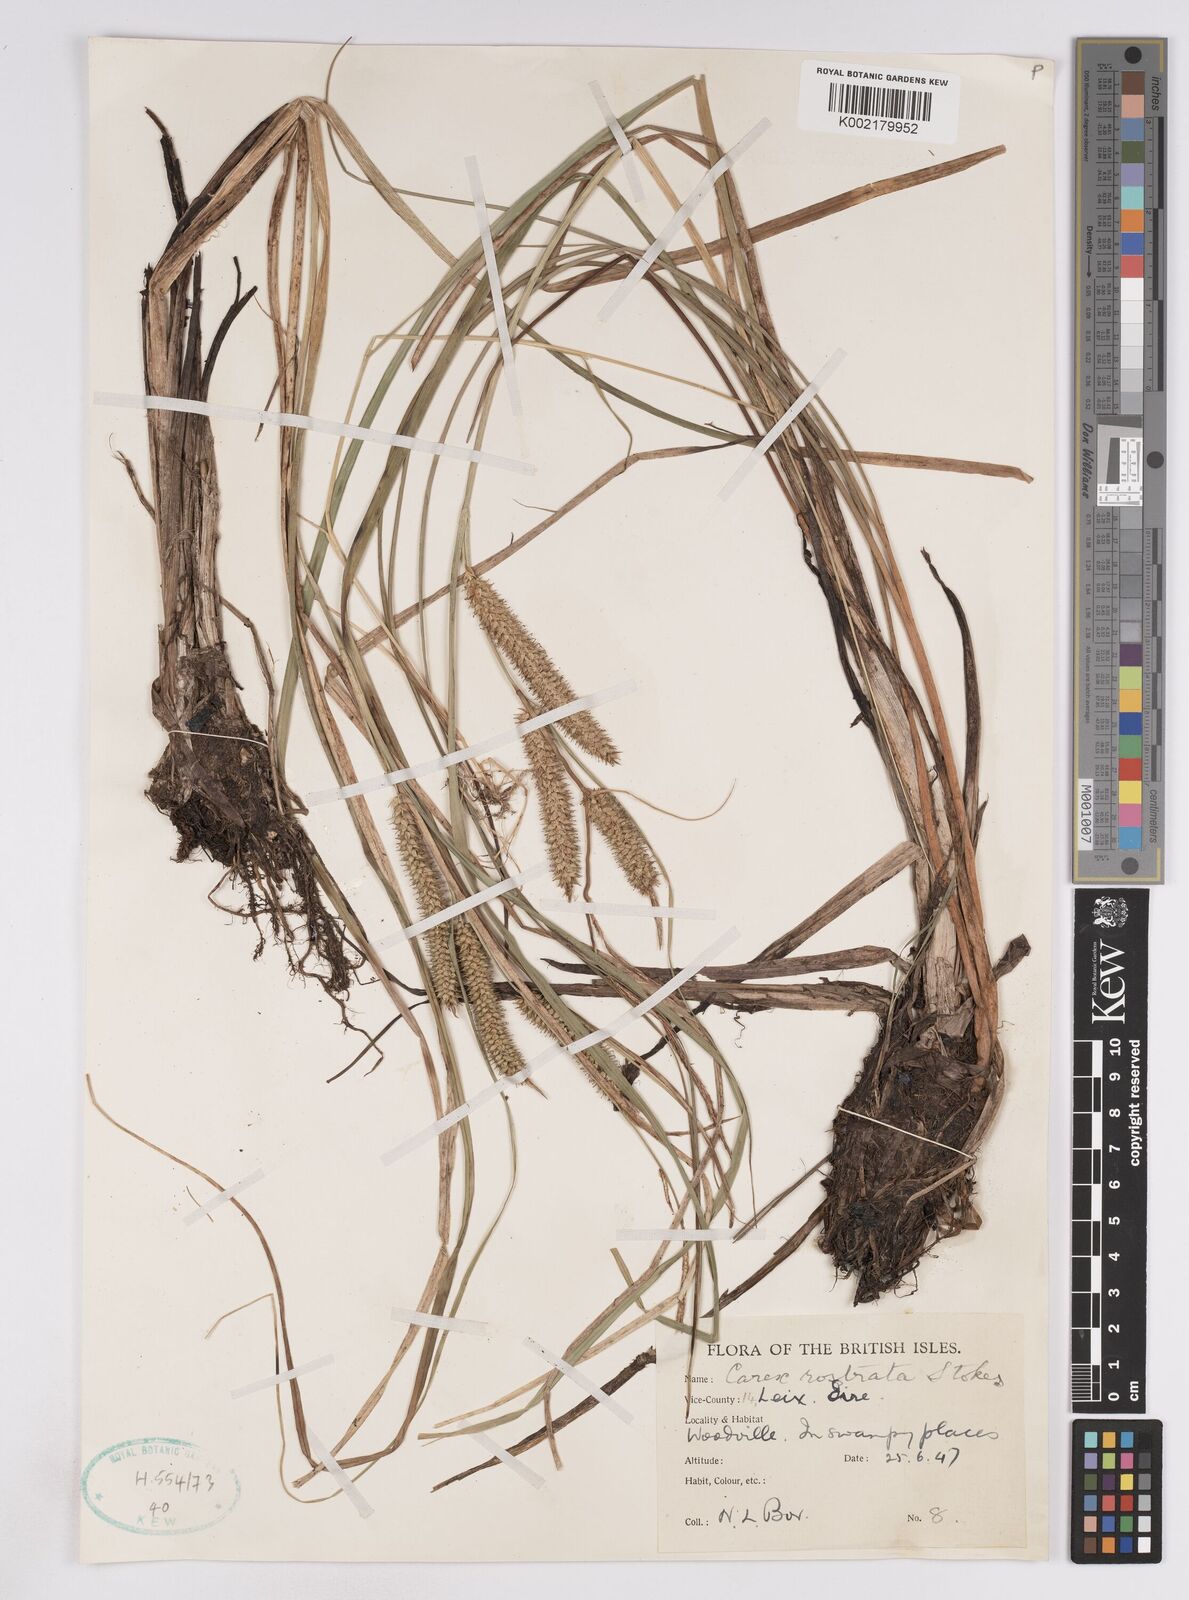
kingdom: Plantae
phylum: Tracheophyta
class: Liliopsida
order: Poales
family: Cyperaceae
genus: Carex
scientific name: Carex utriculata
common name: Beaked sedge
